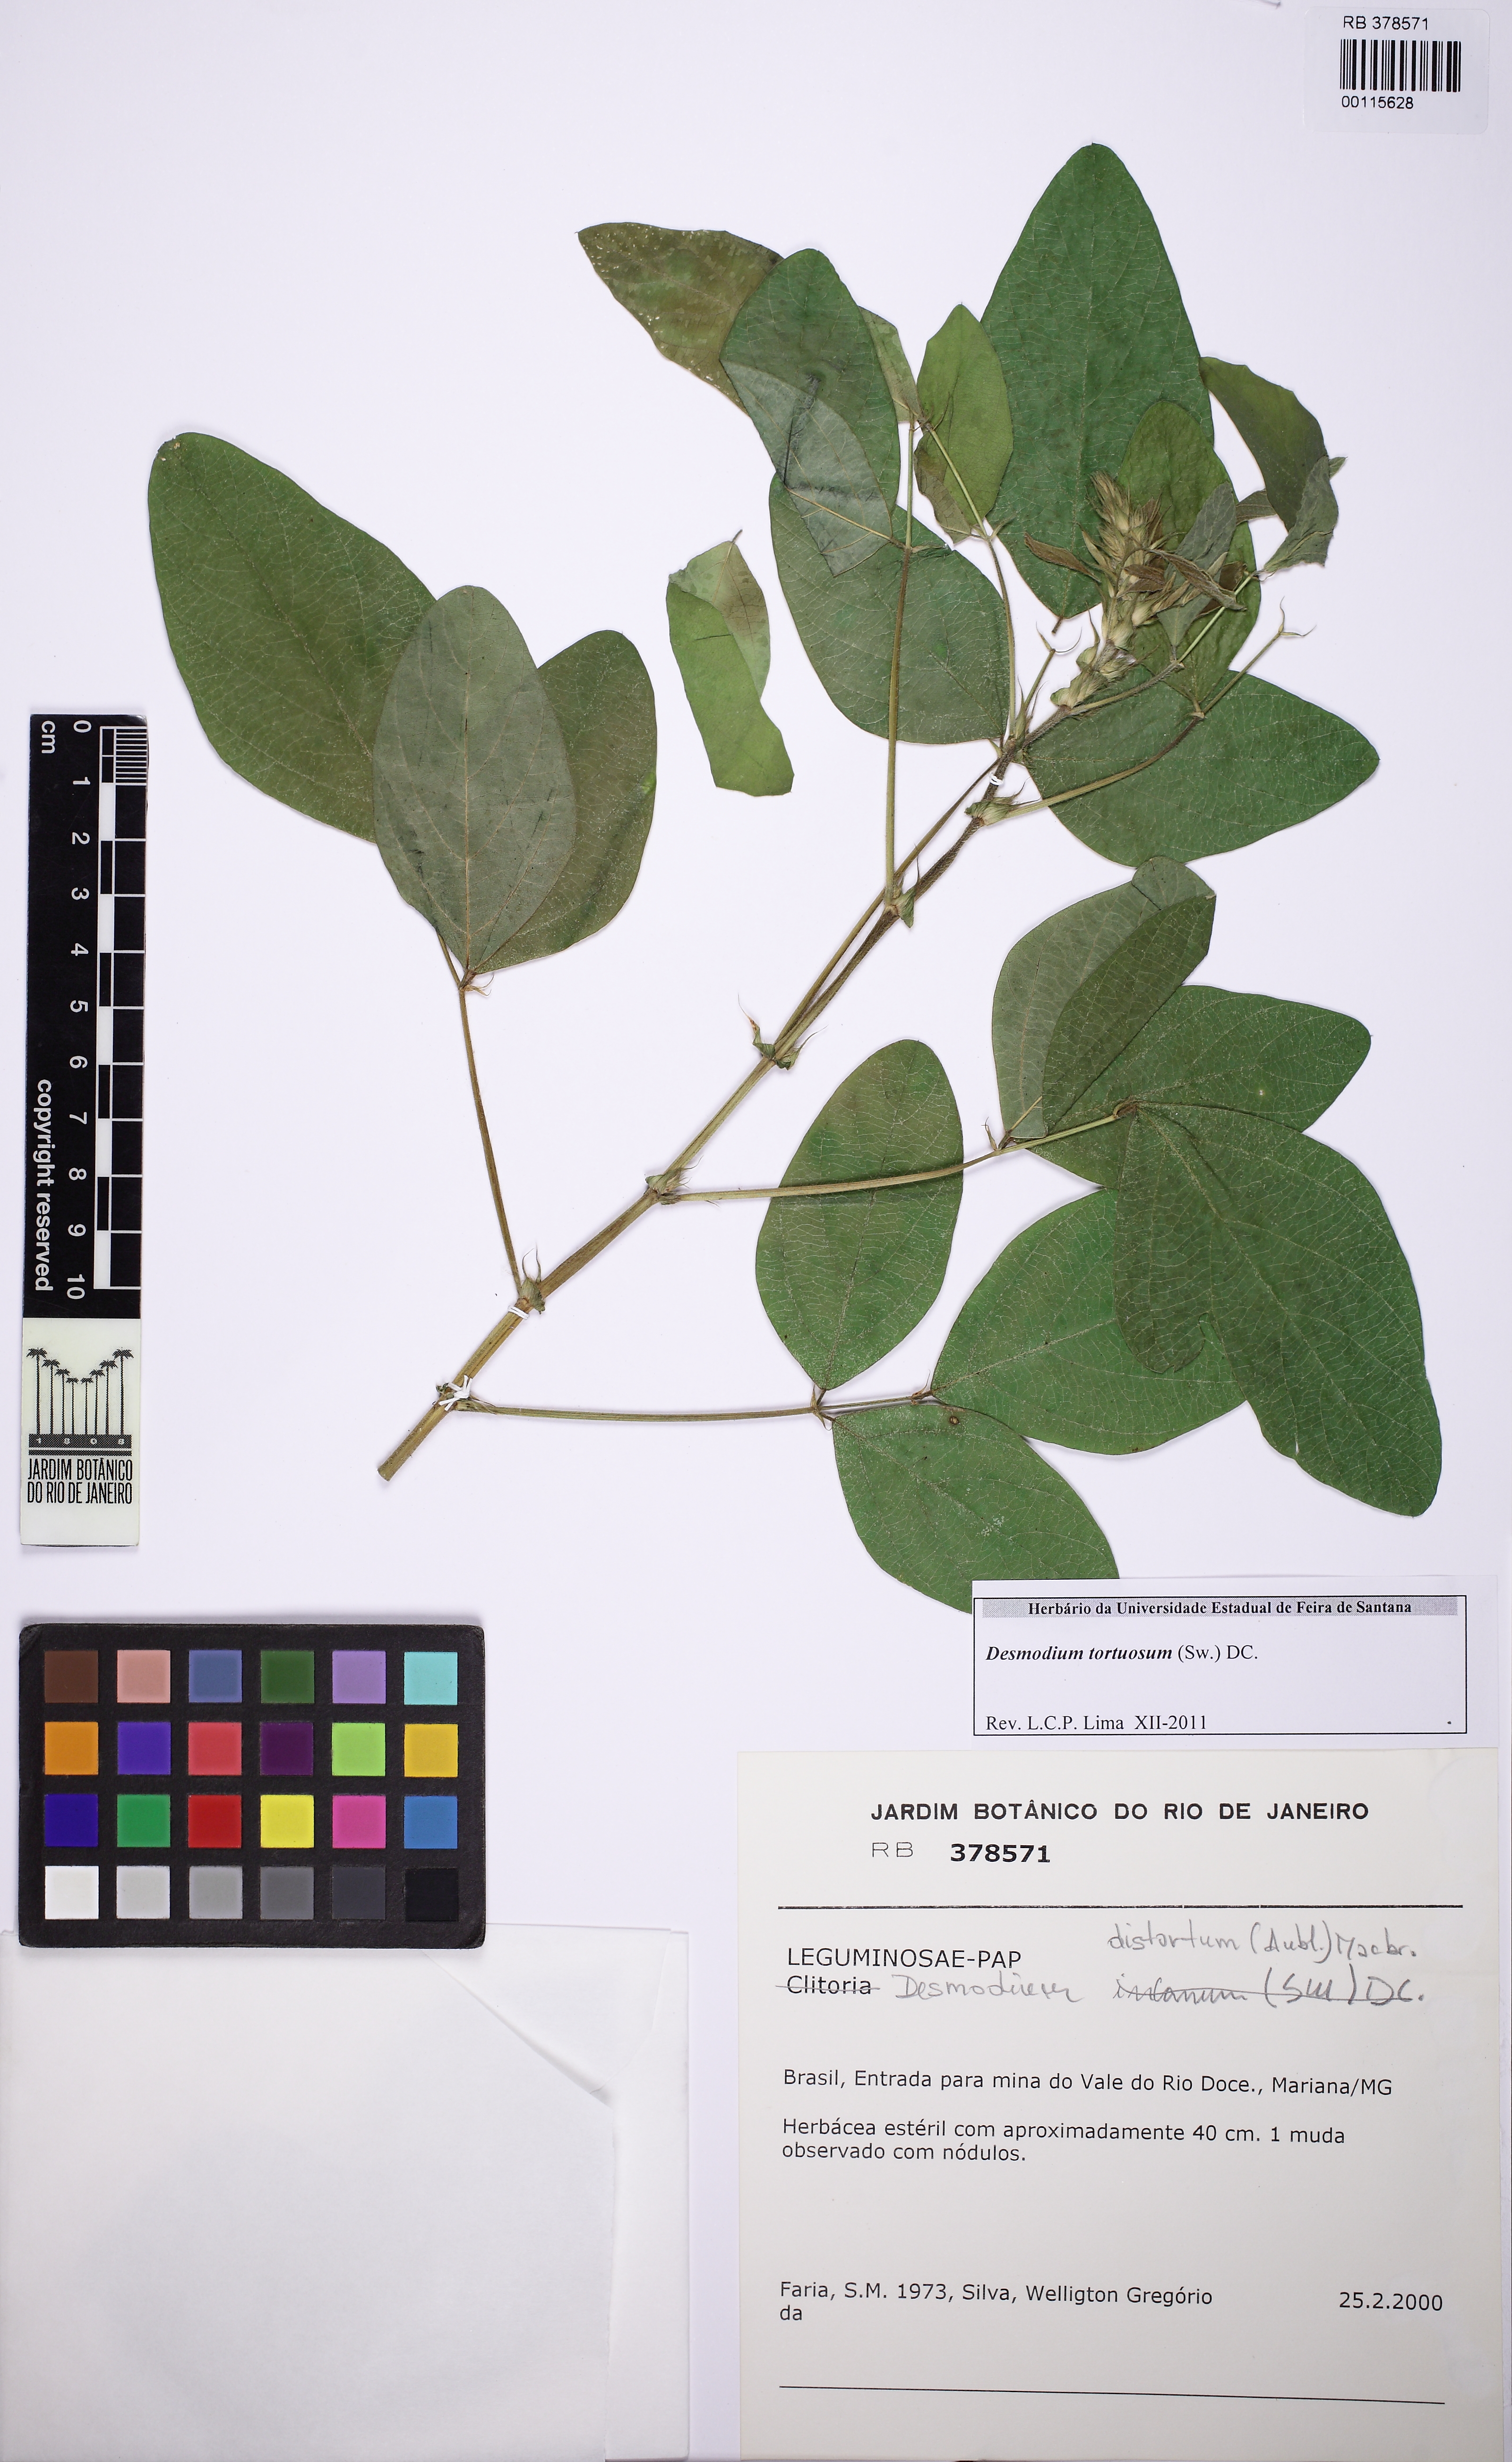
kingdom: Plantae
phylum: Tracheophyta
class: Magnoliopsida
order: Fabales
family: Fabaceae
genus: Desmodium
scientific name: Desmodium tortuosum
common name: Dixie ticktrefoil
